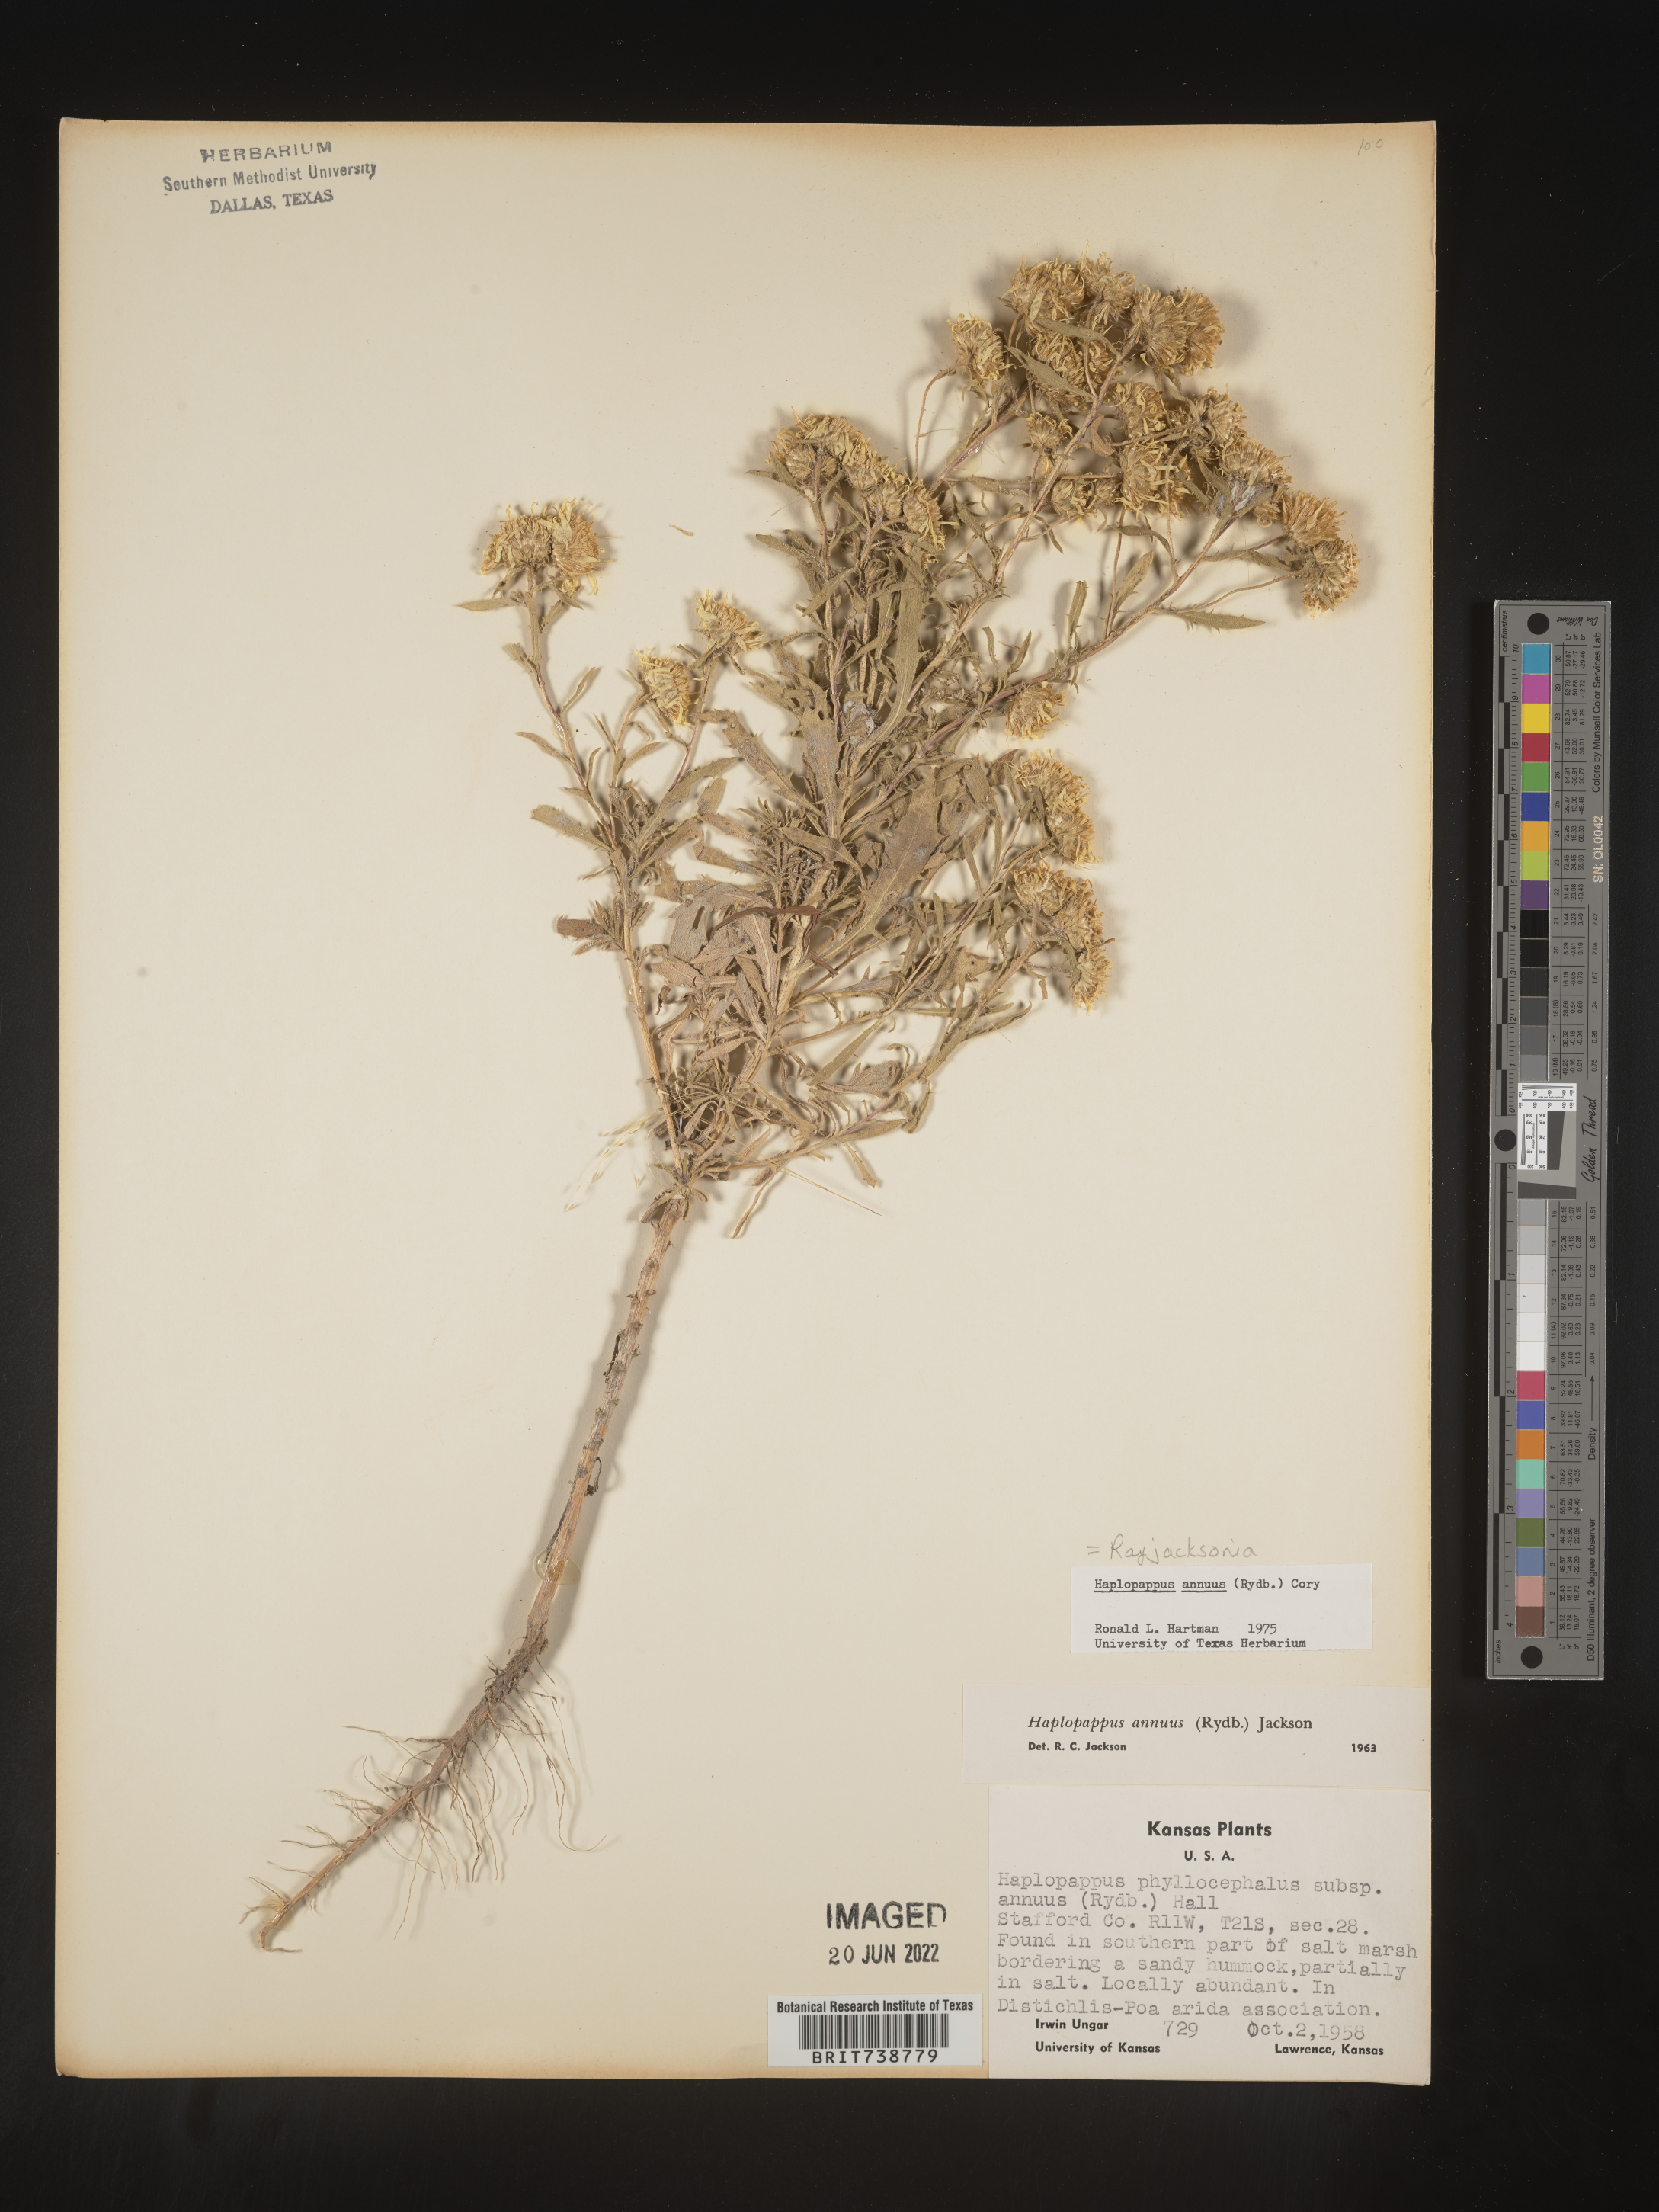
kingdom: Plantae
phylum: Tracheophyta
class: Magnoliopsida
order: Asterales
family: Asteraceae
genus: Rayjacksonia
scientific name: Rayjacksonia annua
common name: Viscid camphor daisy
